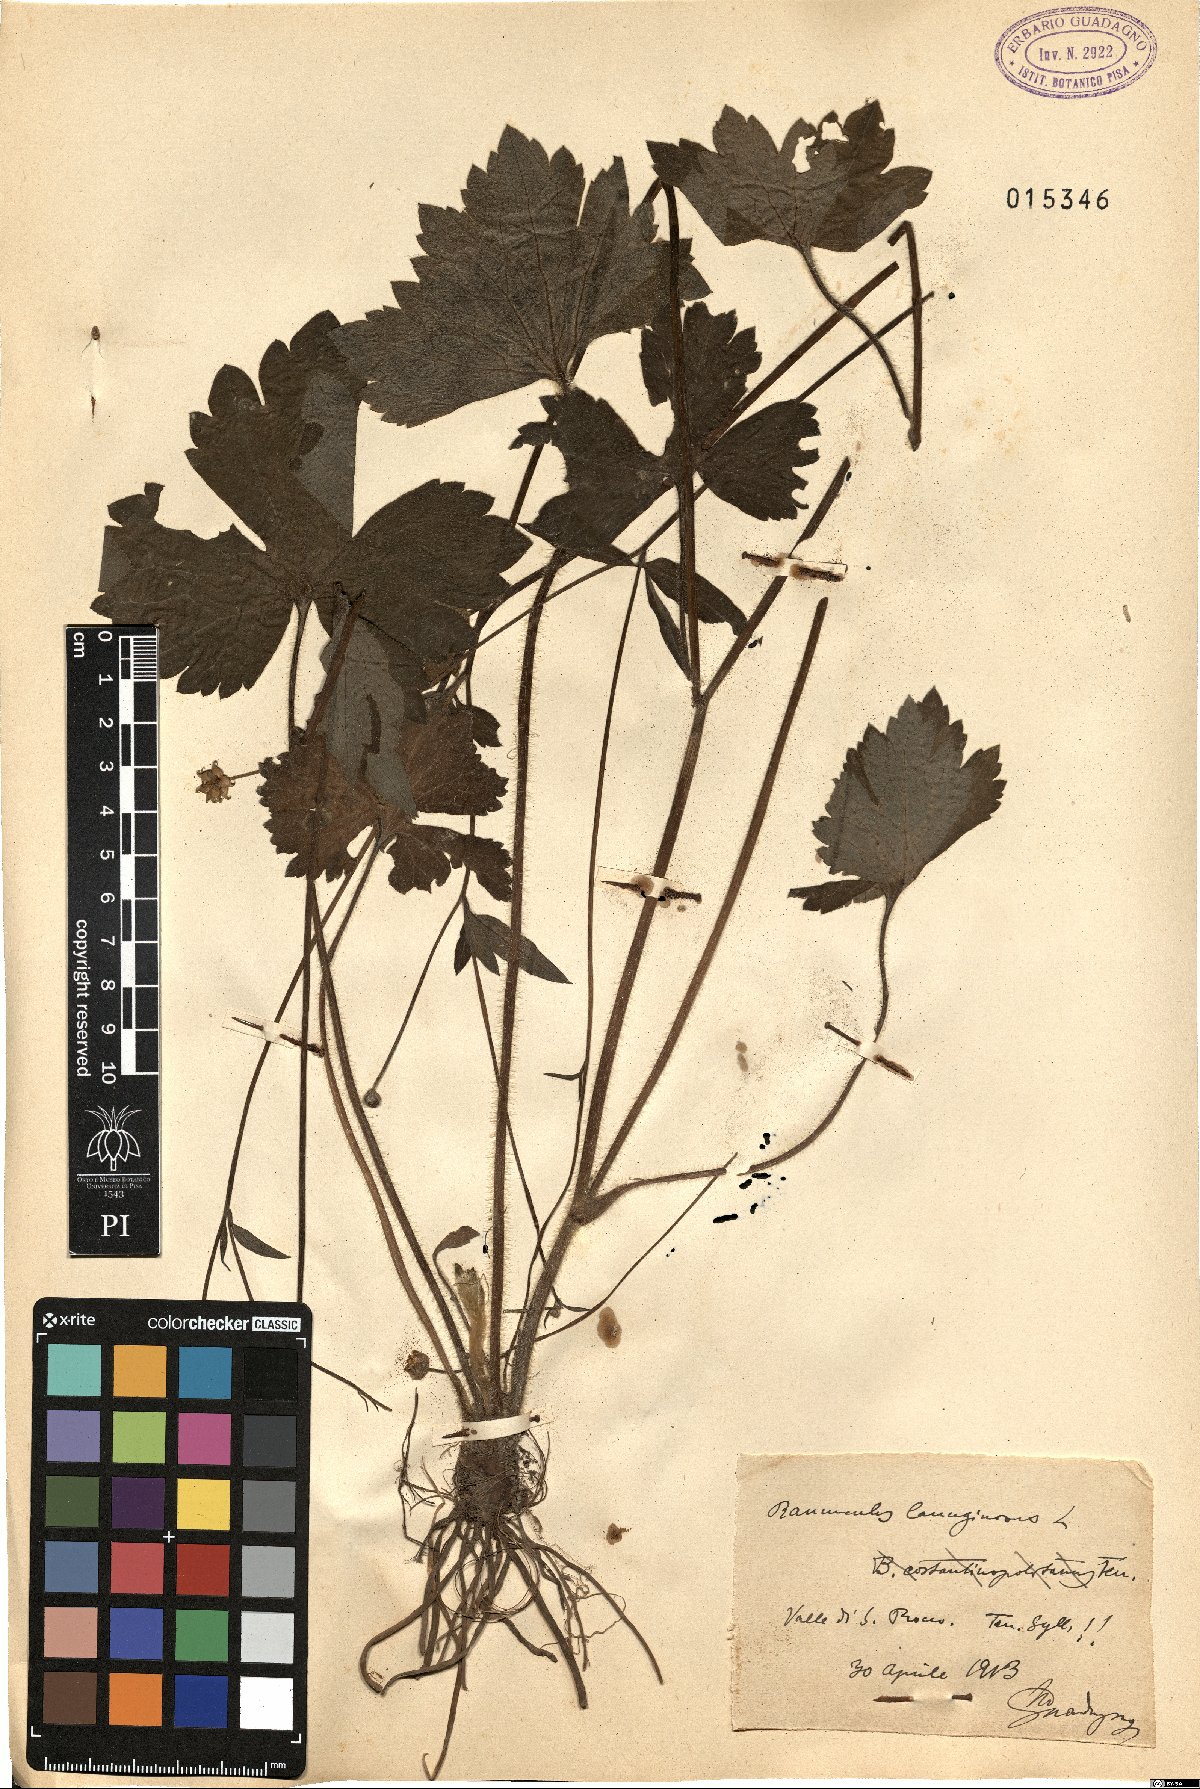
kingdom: Plantae
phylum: Tracheophyta
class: Magnoliopsida
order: Ranunculales
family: Ranunculaceae
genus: Ranunculus
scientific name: Ranunculus lanuginosus
